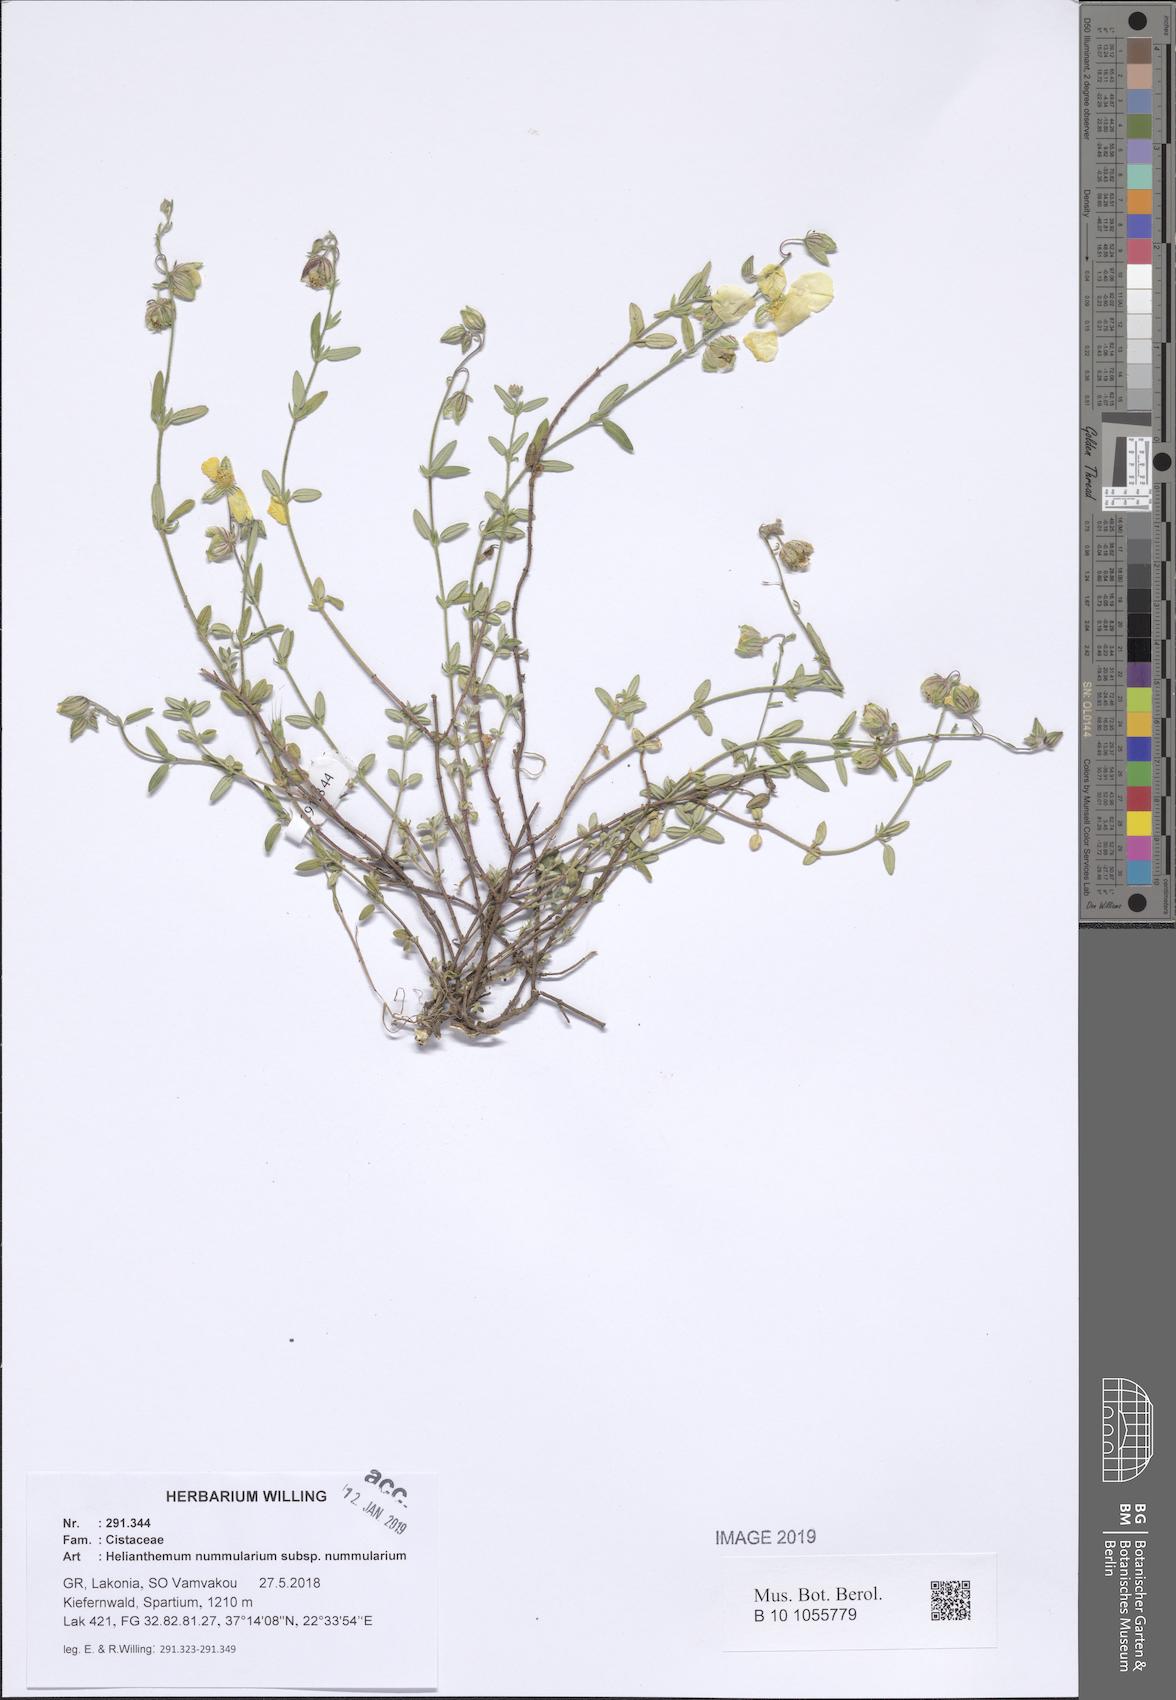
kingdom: Plantae
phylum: Tracheophyta
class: Magnoliopsida
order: Malvales
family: Cistaceae
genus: Helianthemum
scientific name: Helianthemum nummularium
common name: Common rock-rose
